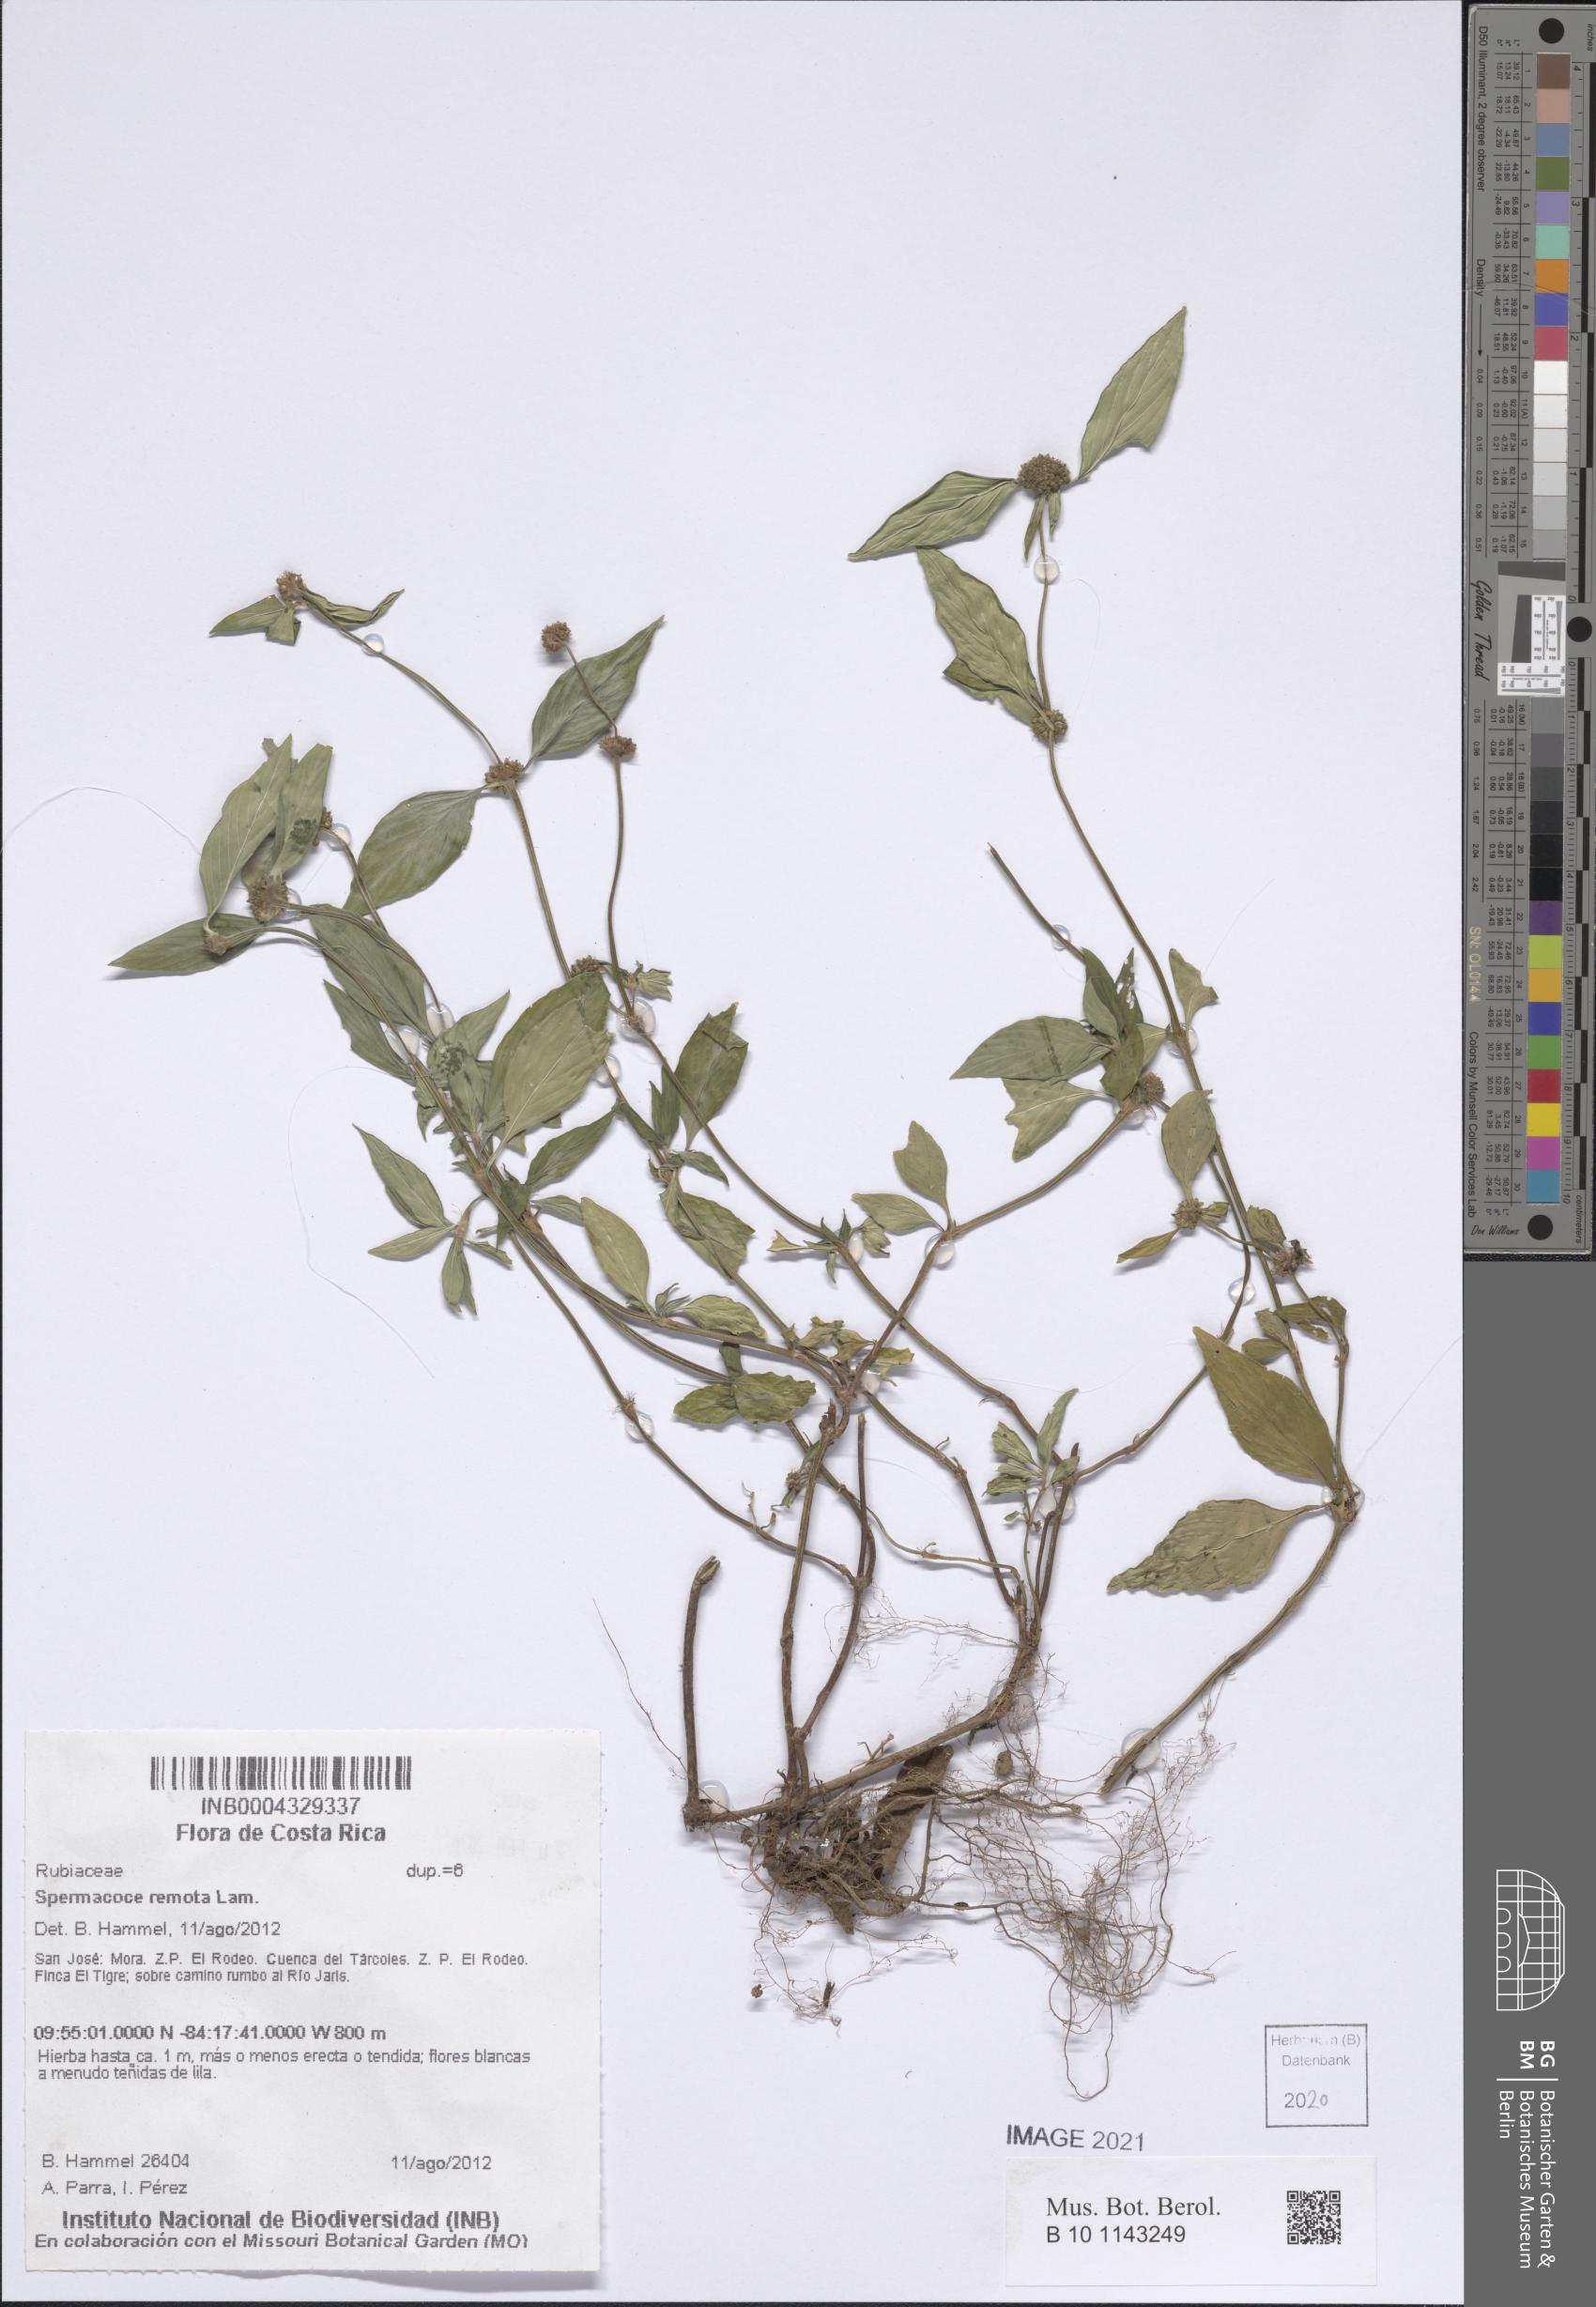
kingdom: Plantae
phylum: Tracheophyta
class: Magnoliopsida
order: Gentianales
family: Rubiaceae
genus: Spermacoce
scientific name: Spermacoce remota
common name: Woodland false buttonweed
